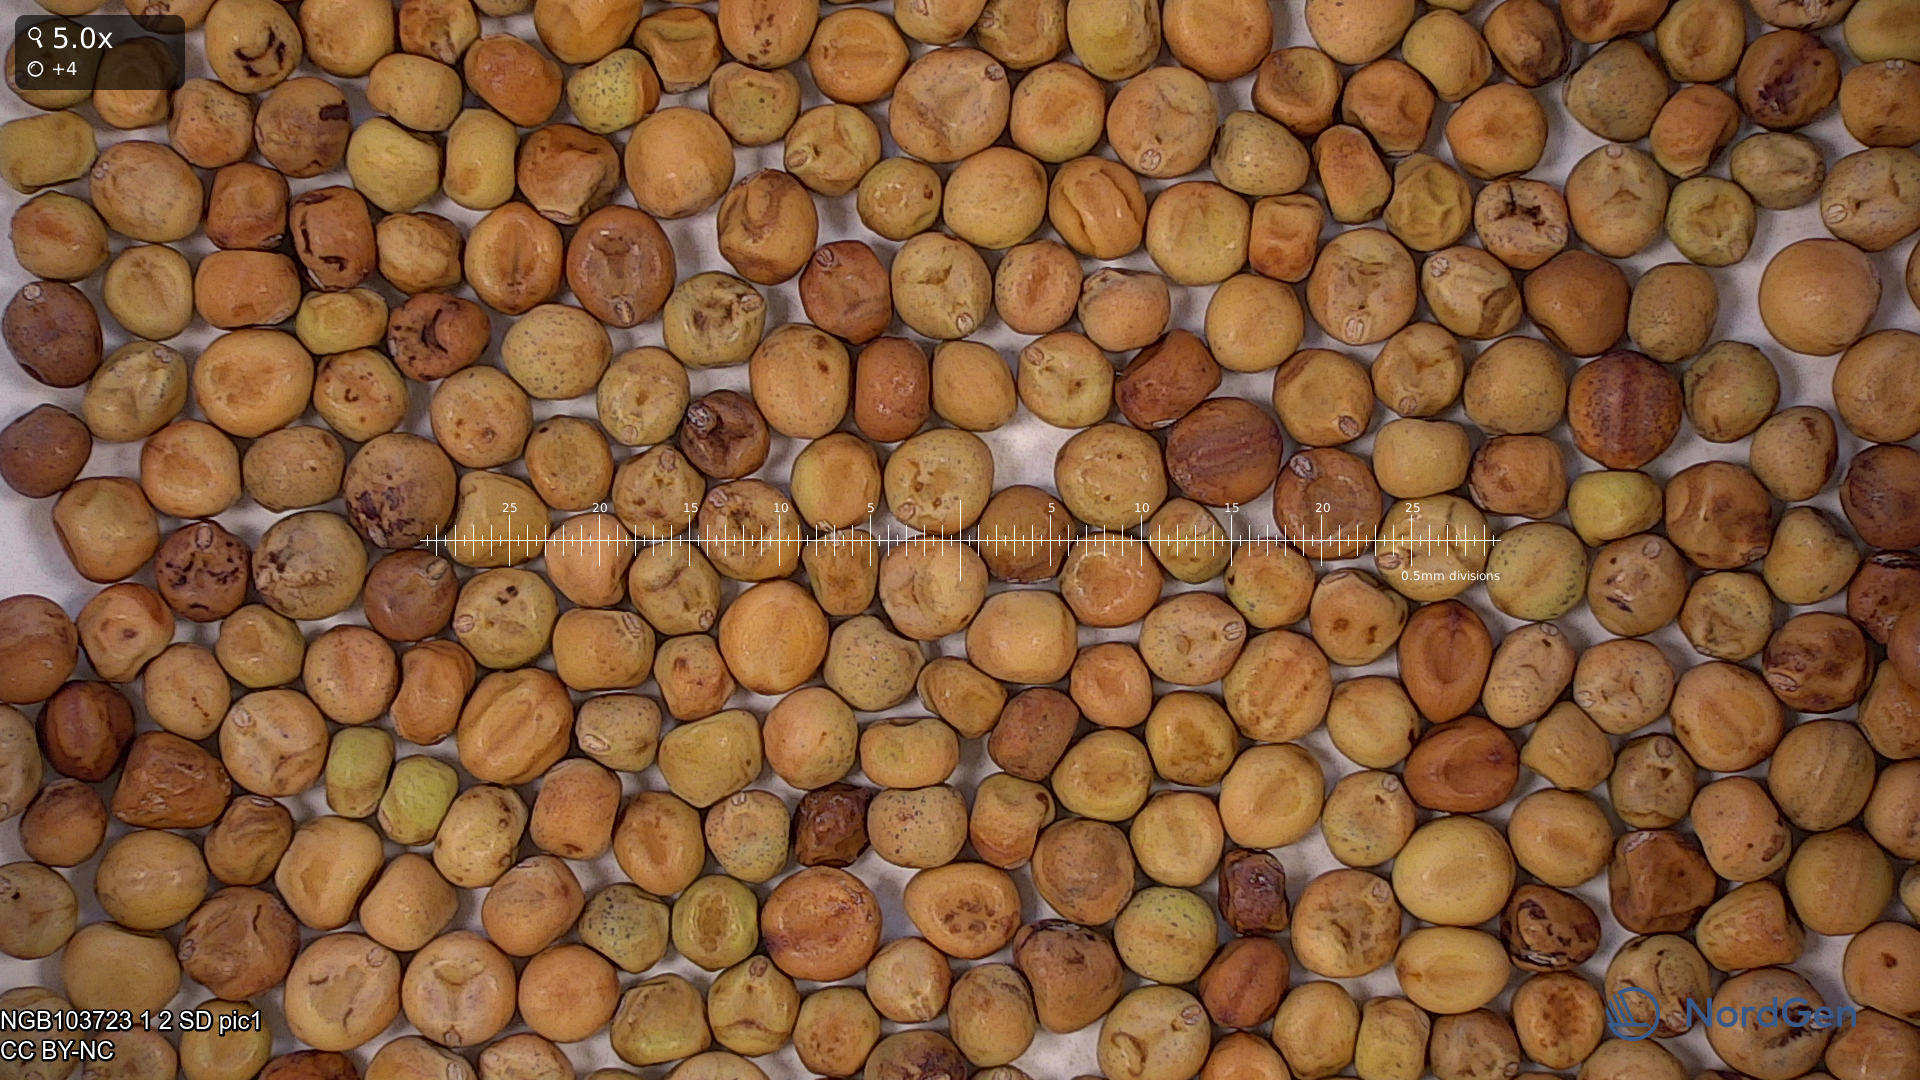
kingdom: Plantae
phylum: Tracheophyta
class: Magnoliopsida
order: Fabales
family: Fabaceae
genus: Lathyrus
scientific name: Lathyrus oleraceus
